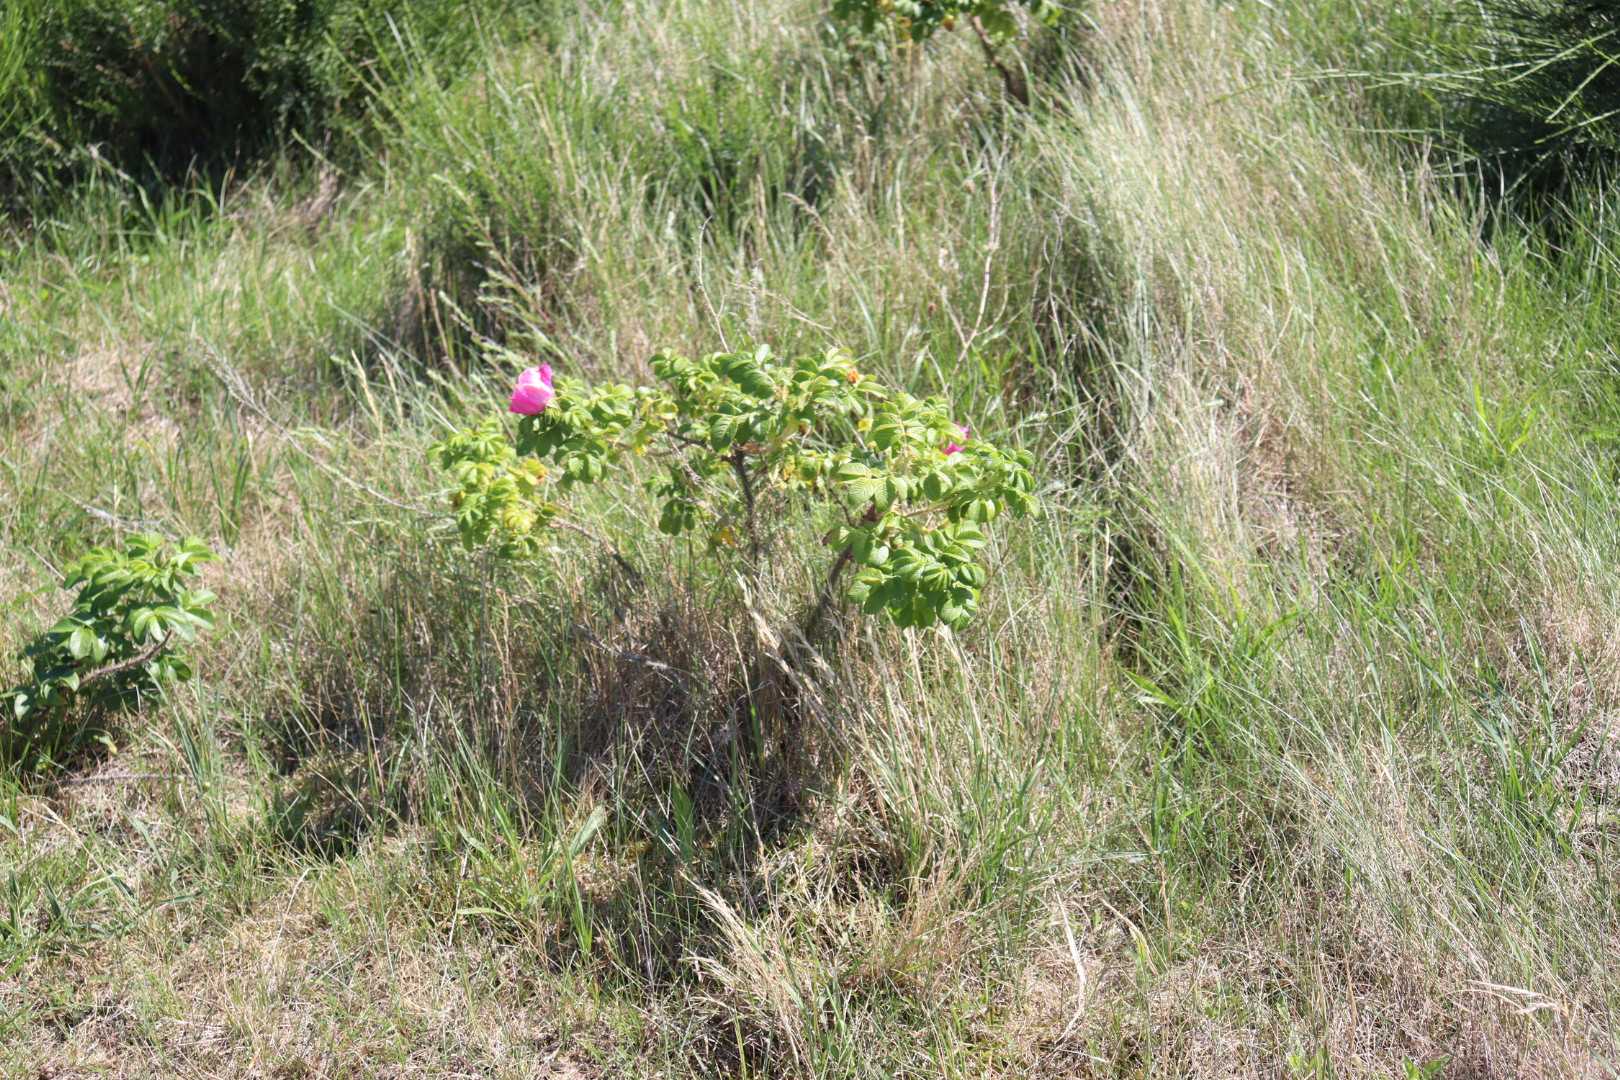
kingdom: Plantae
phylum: Tracheophyta
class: Magnoliopsida
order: Rosales
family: Rosaceae
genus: Rosa
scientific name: Rosa rugosa
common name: Rynket rose
